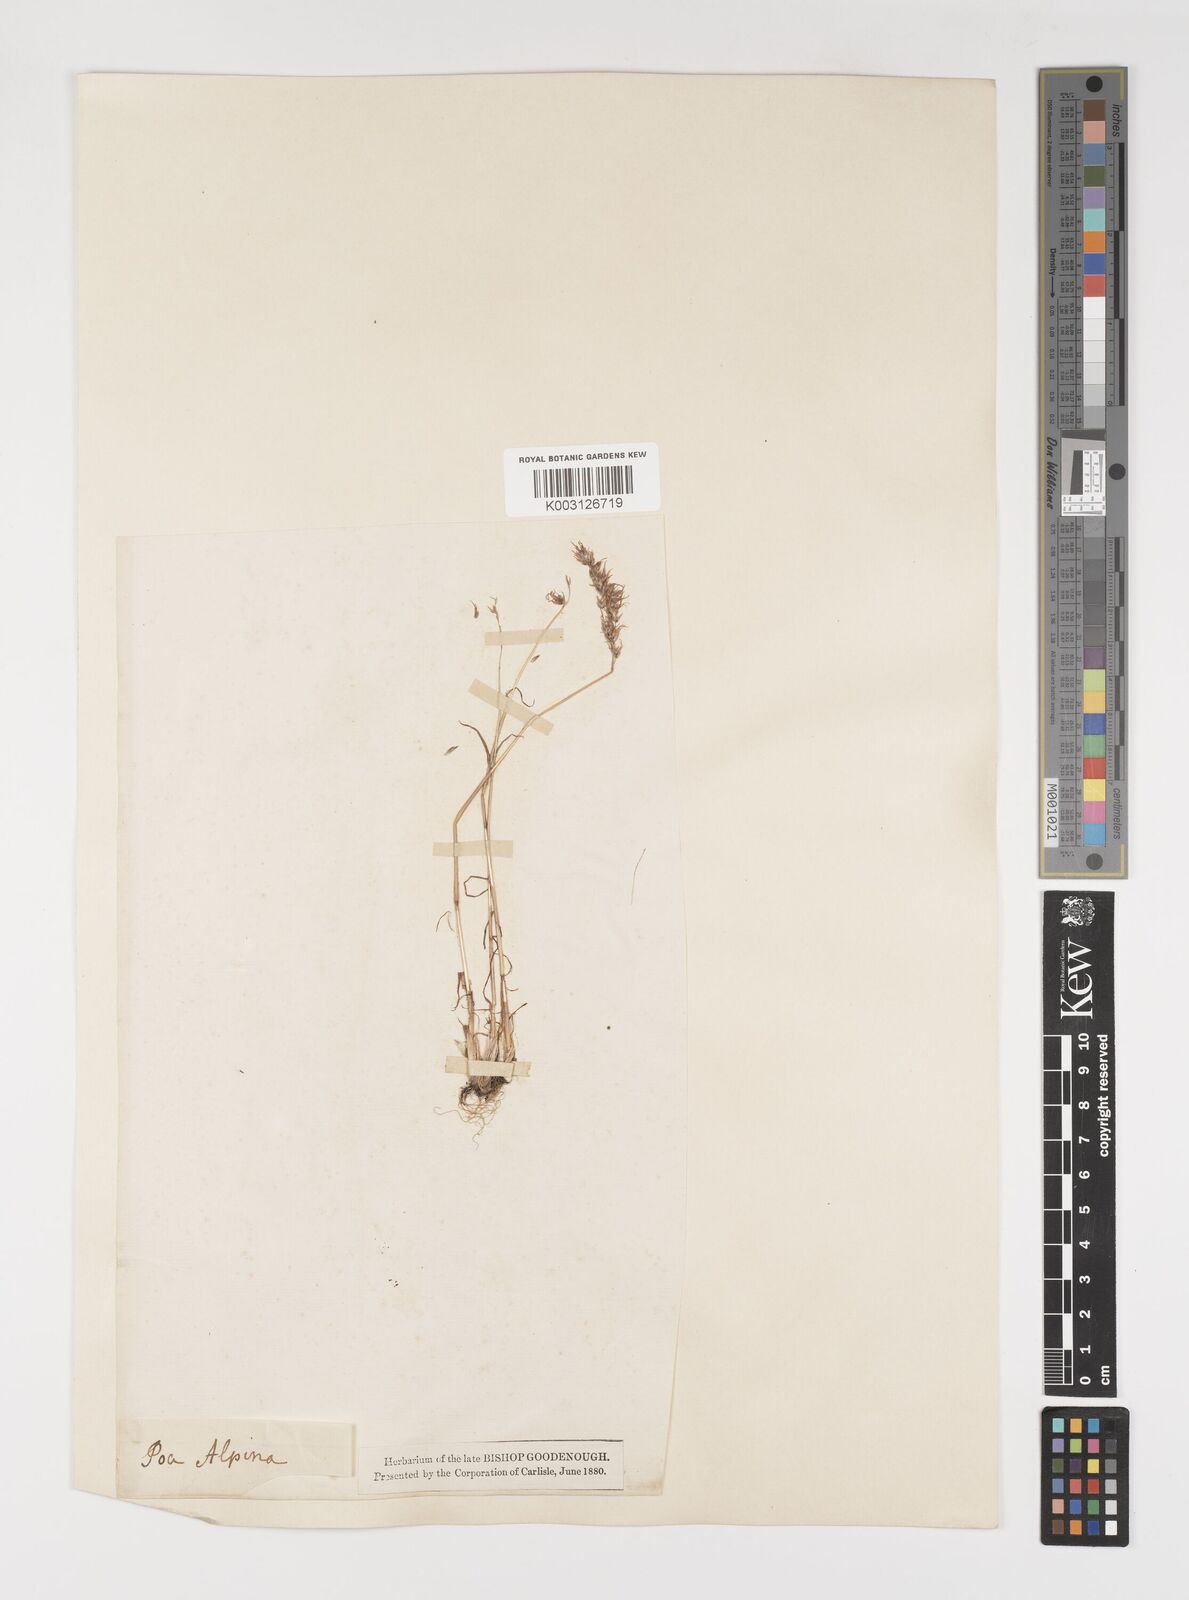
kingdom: Plantae
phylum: Tracheophyta
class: Liliopsida
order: Poales
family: Poaceae
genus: Poa
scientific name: Poa bulbosa
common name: Bulbous bluegrass
